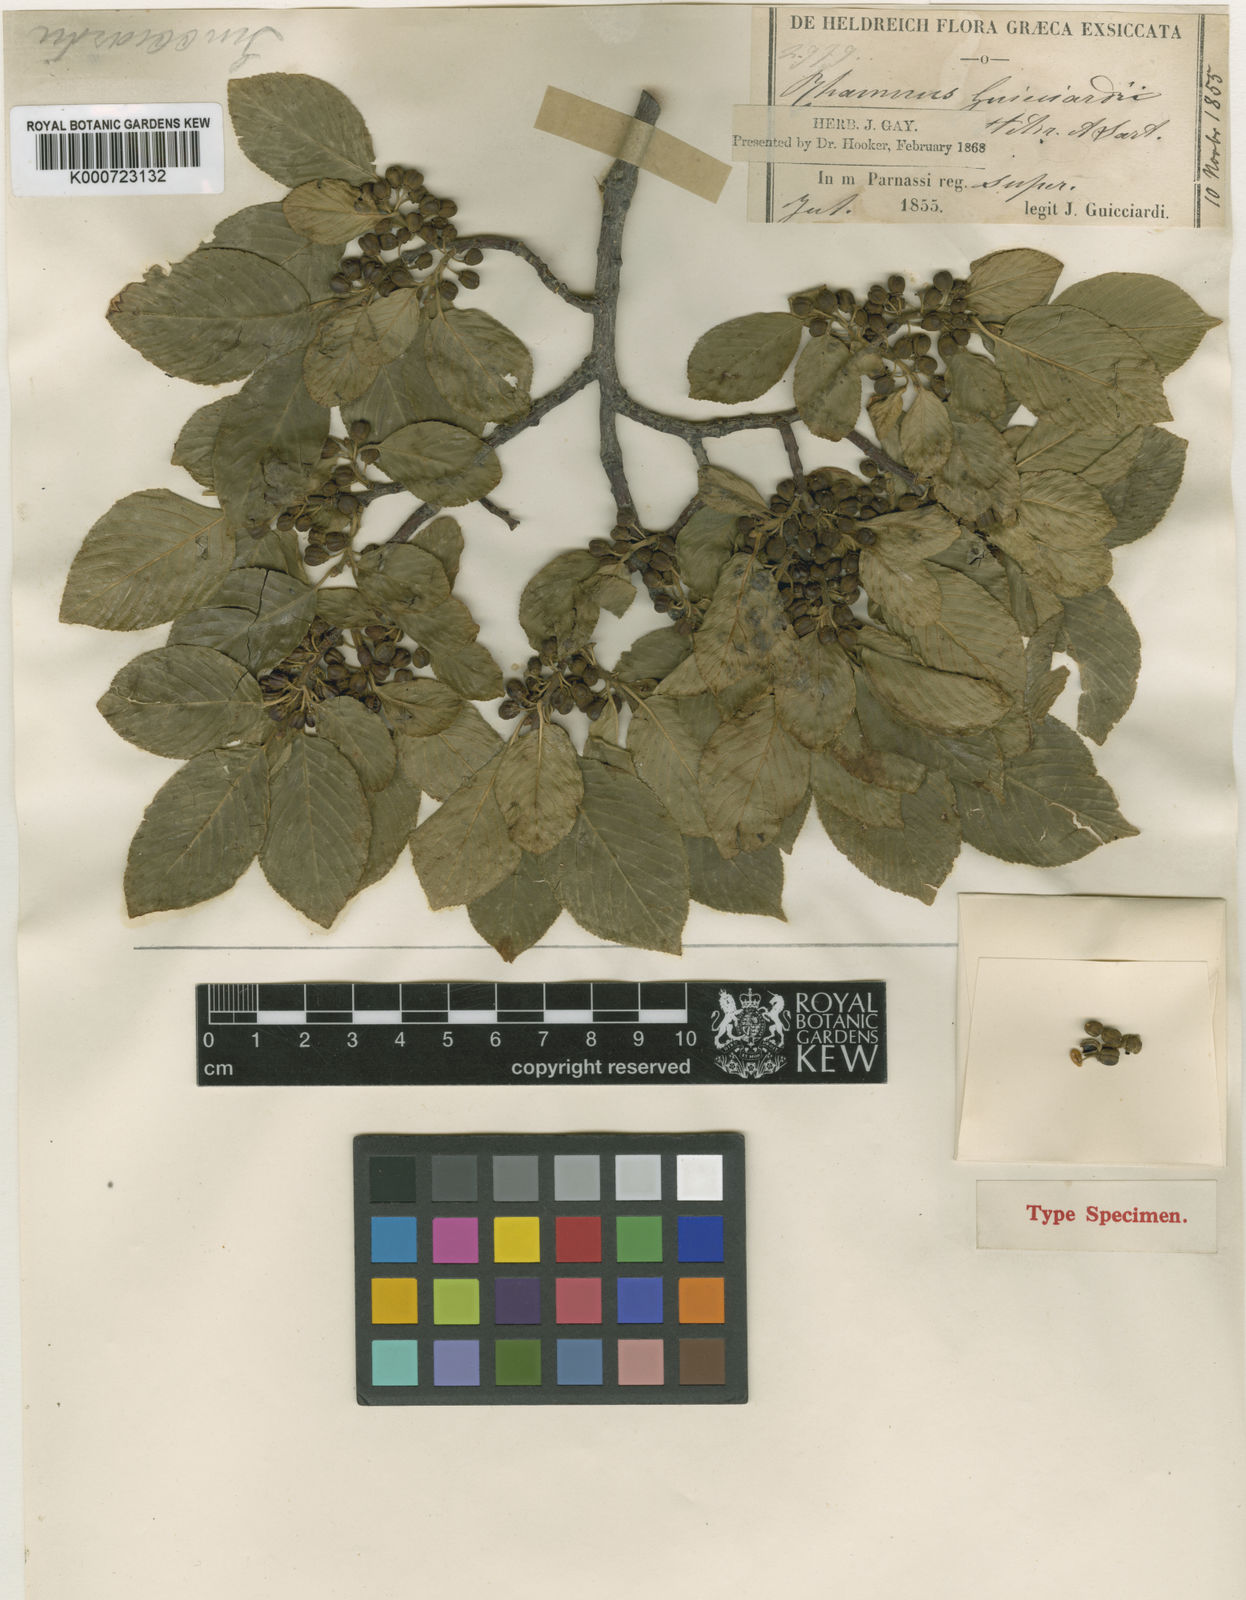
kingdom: Plantae
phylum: Tracheophyta
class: Magnoliopsida
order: Rosales
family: Rhamnaceae
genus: Rhamnus
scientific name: Rhamnus
